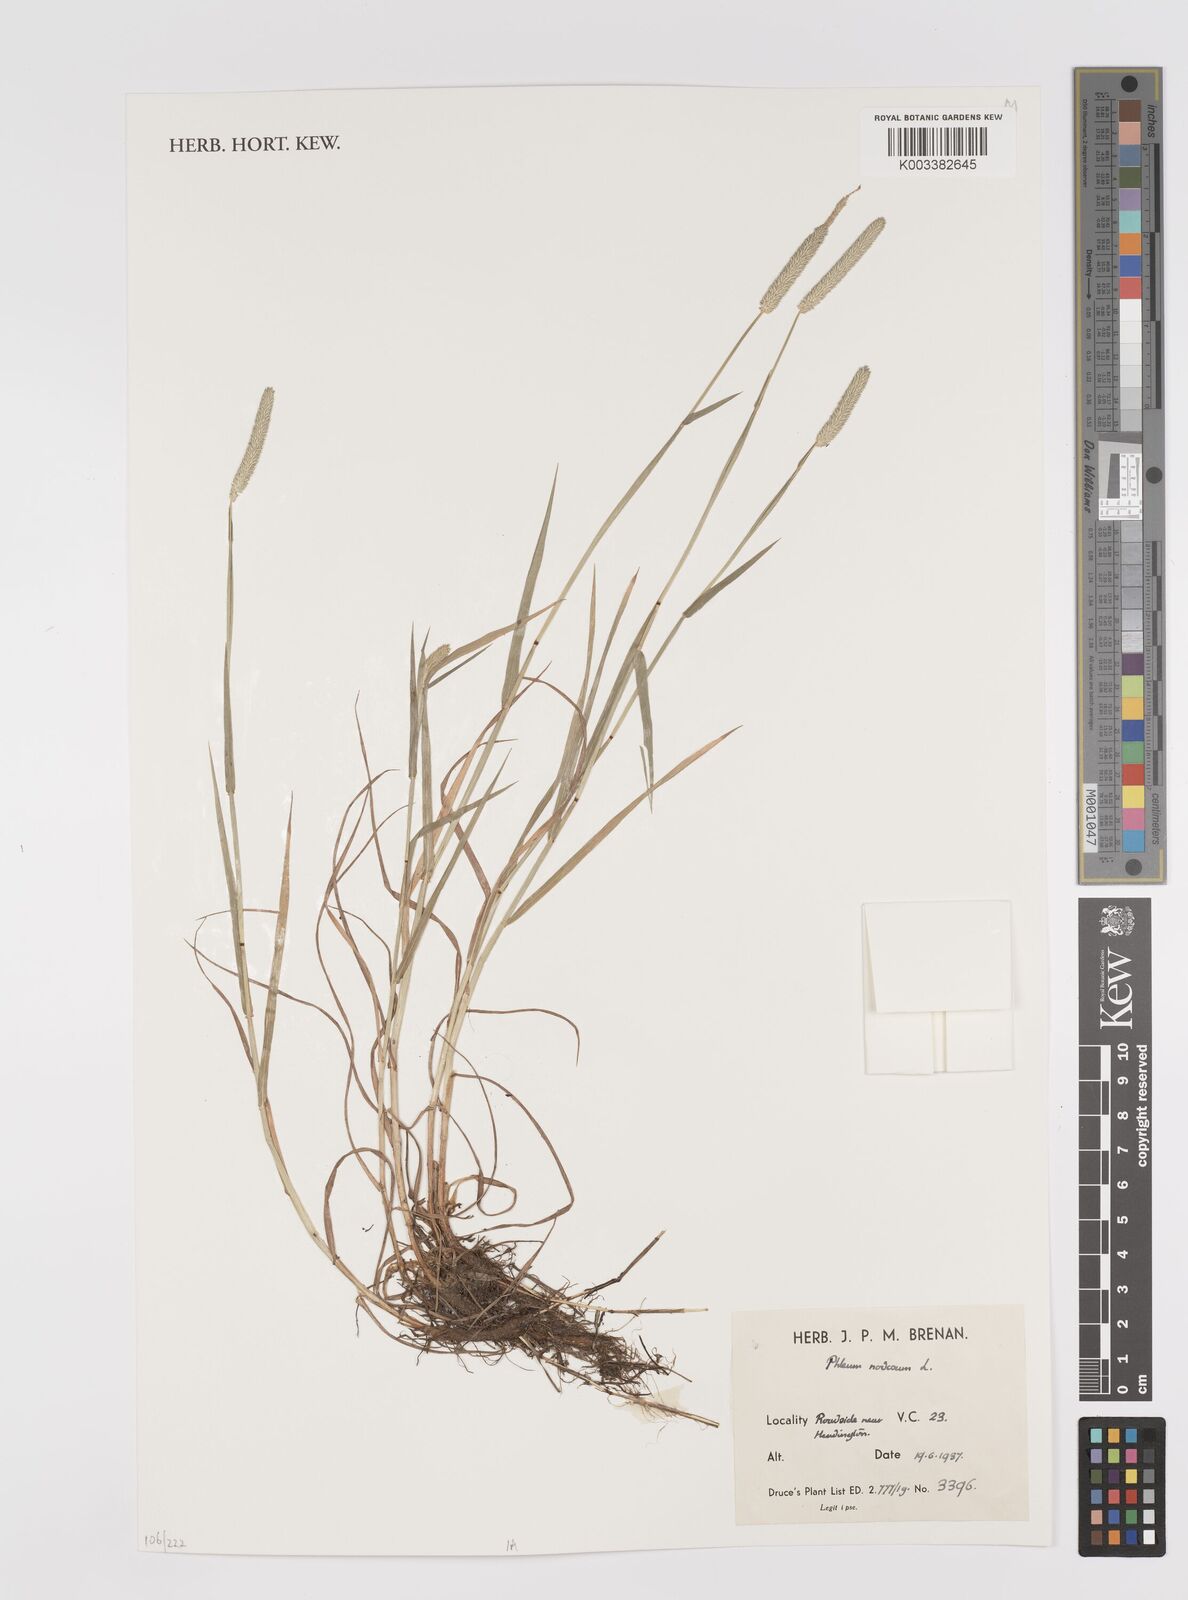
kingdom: Plantae
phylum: Tracheophyta
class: Liliopsida
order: Poales
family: Poaceae
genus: Phleum
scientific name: Phleum pratense
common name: Timothy grass
